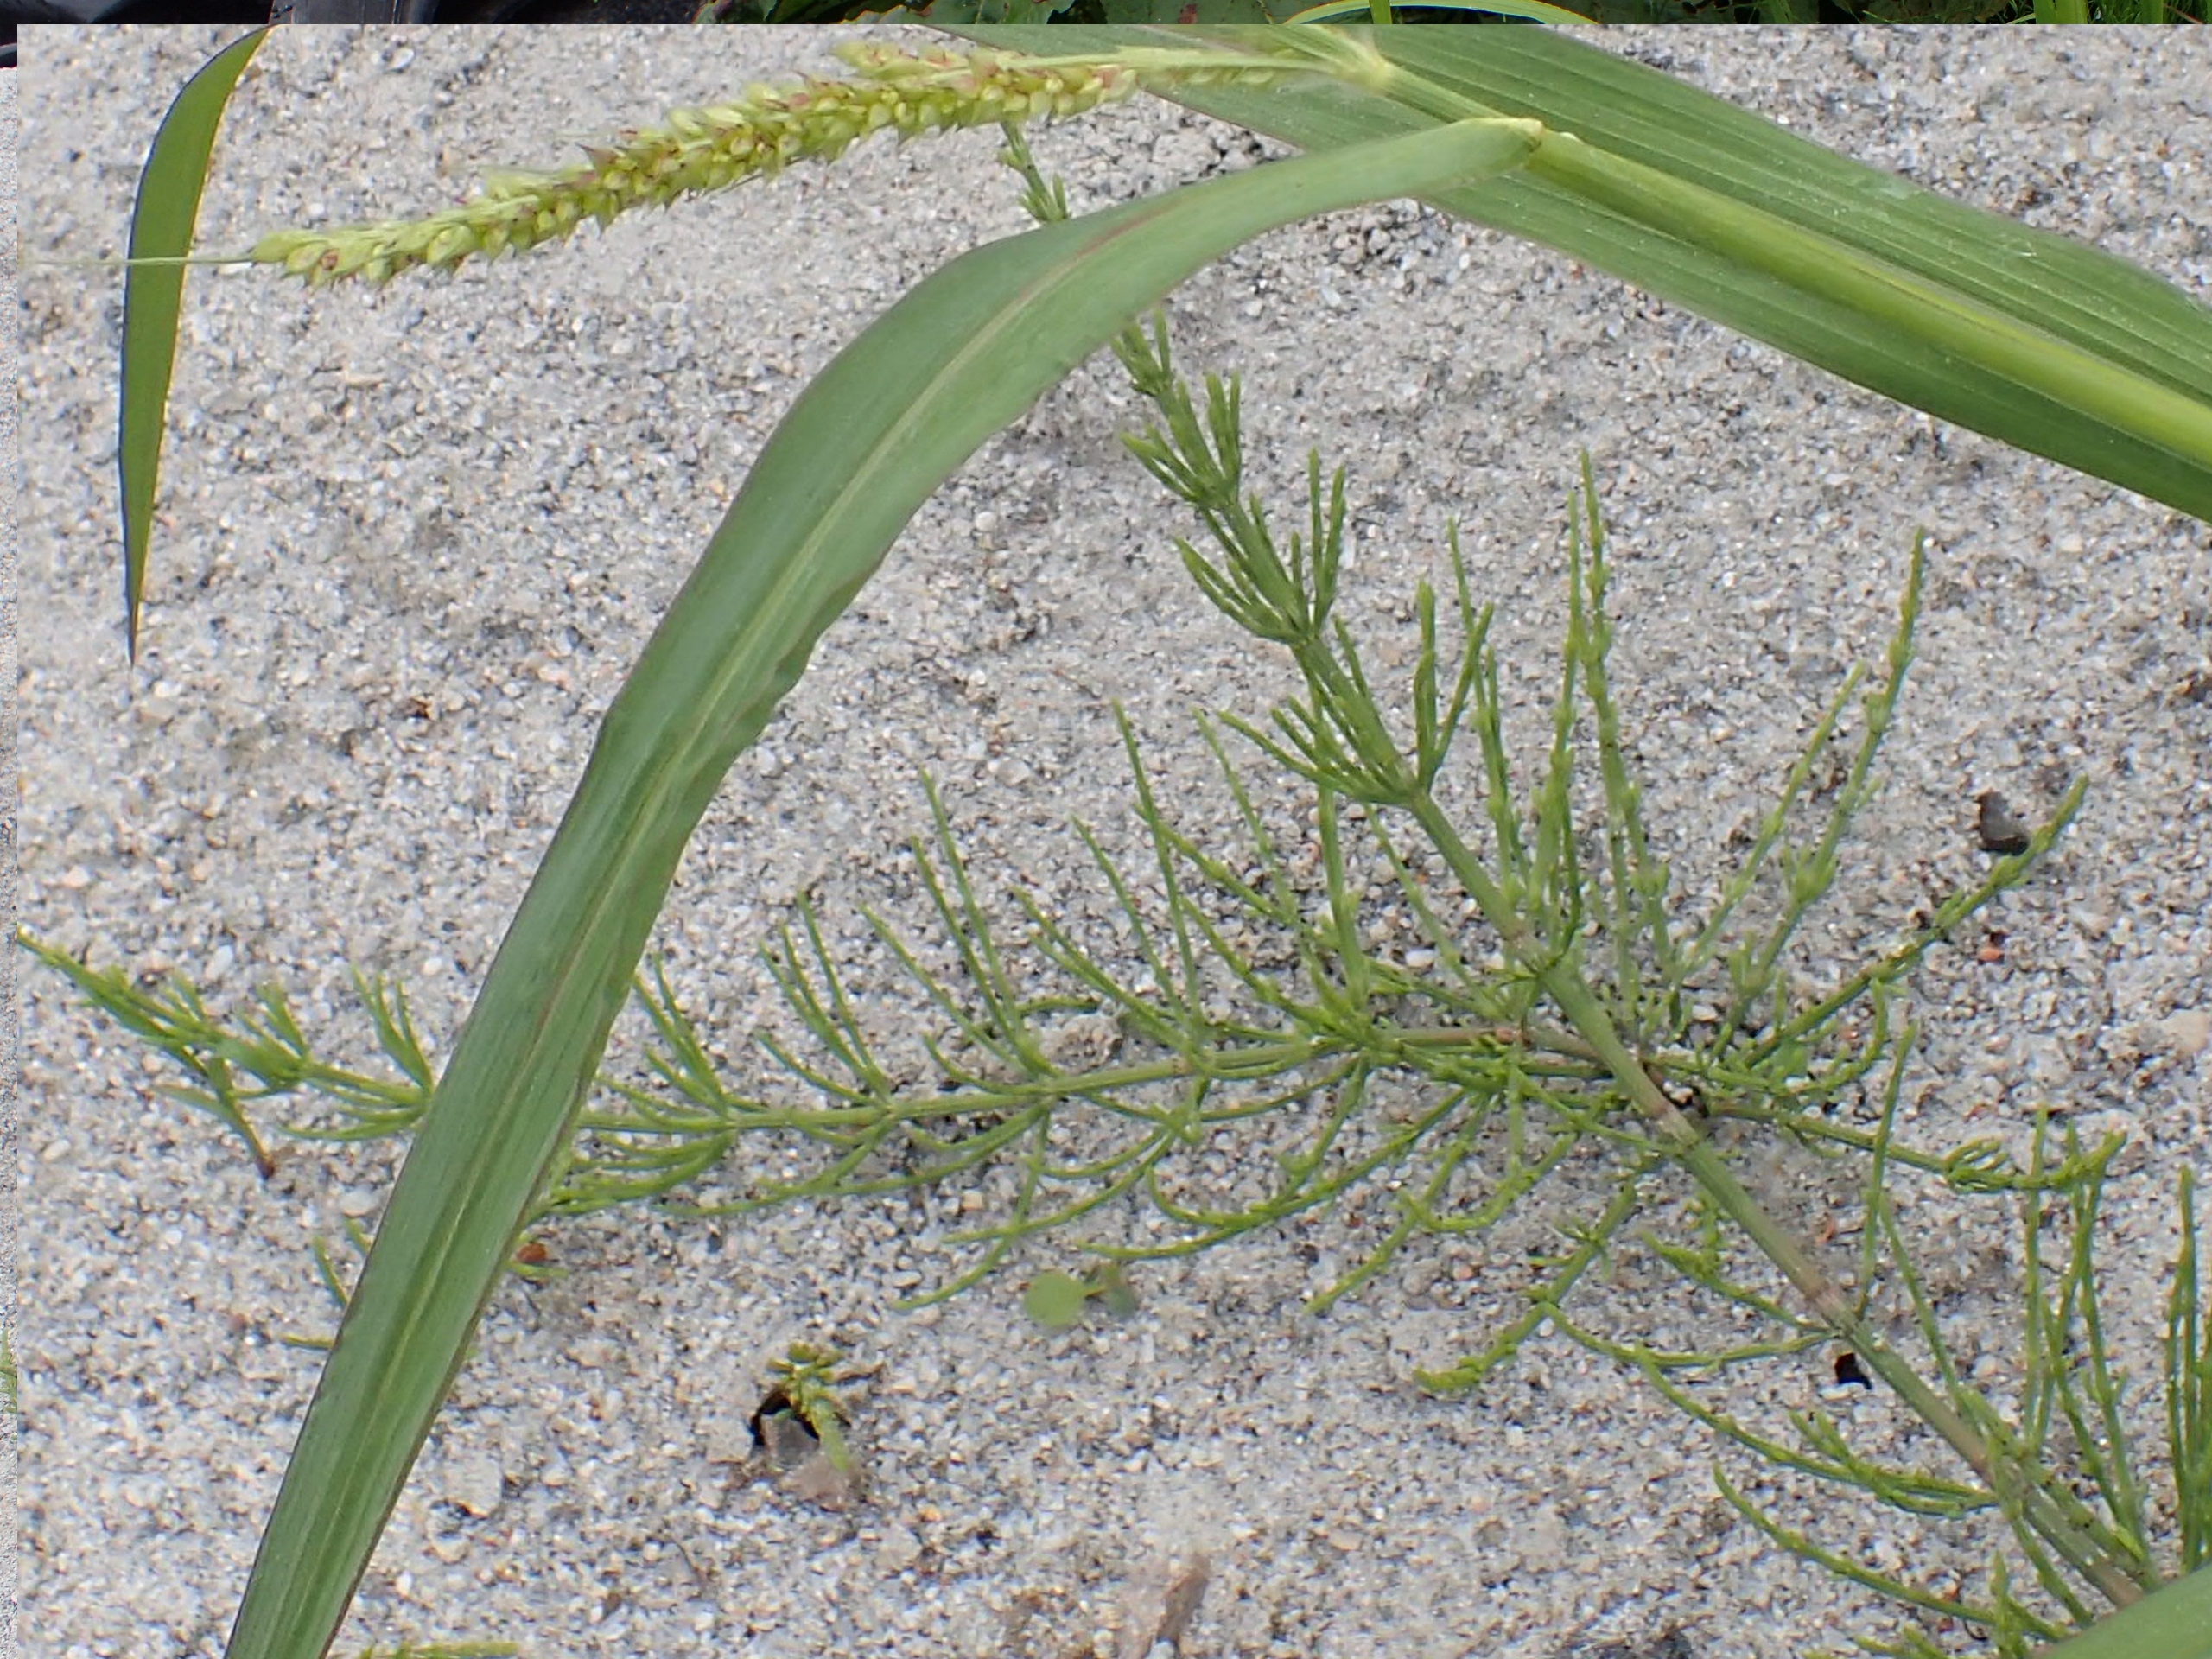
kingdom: Plantae
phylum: Tracheophyta
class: Polypodiopsida
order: Equisetales
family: Equisetaceae
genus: Equisetum
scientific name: Equisetum arvense
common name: Ager-padderok
